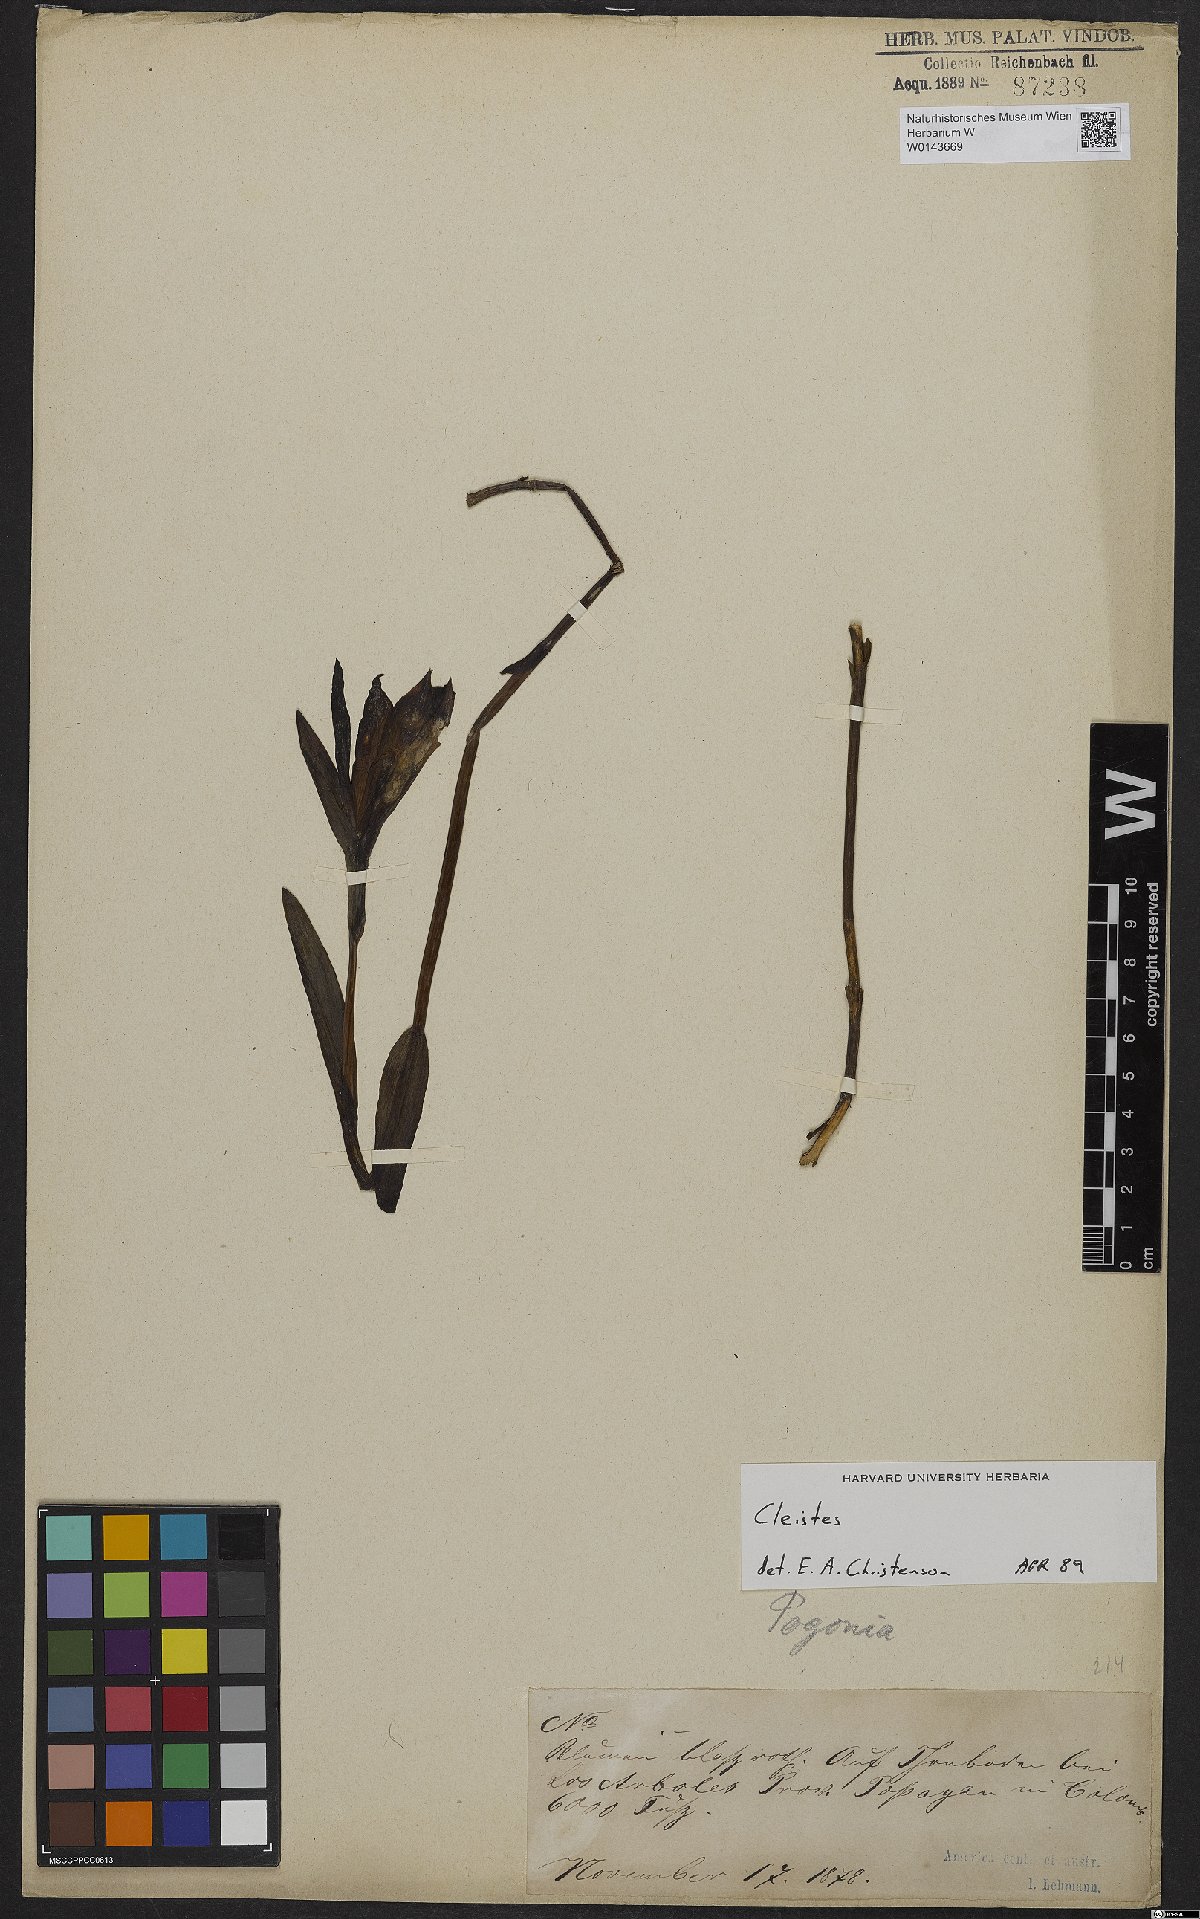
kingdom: Plantae
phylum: Tracheophyta
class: Liliopsida
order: Asparagales
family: Orchidaceae
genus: Cleistes
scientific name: Cleistes
